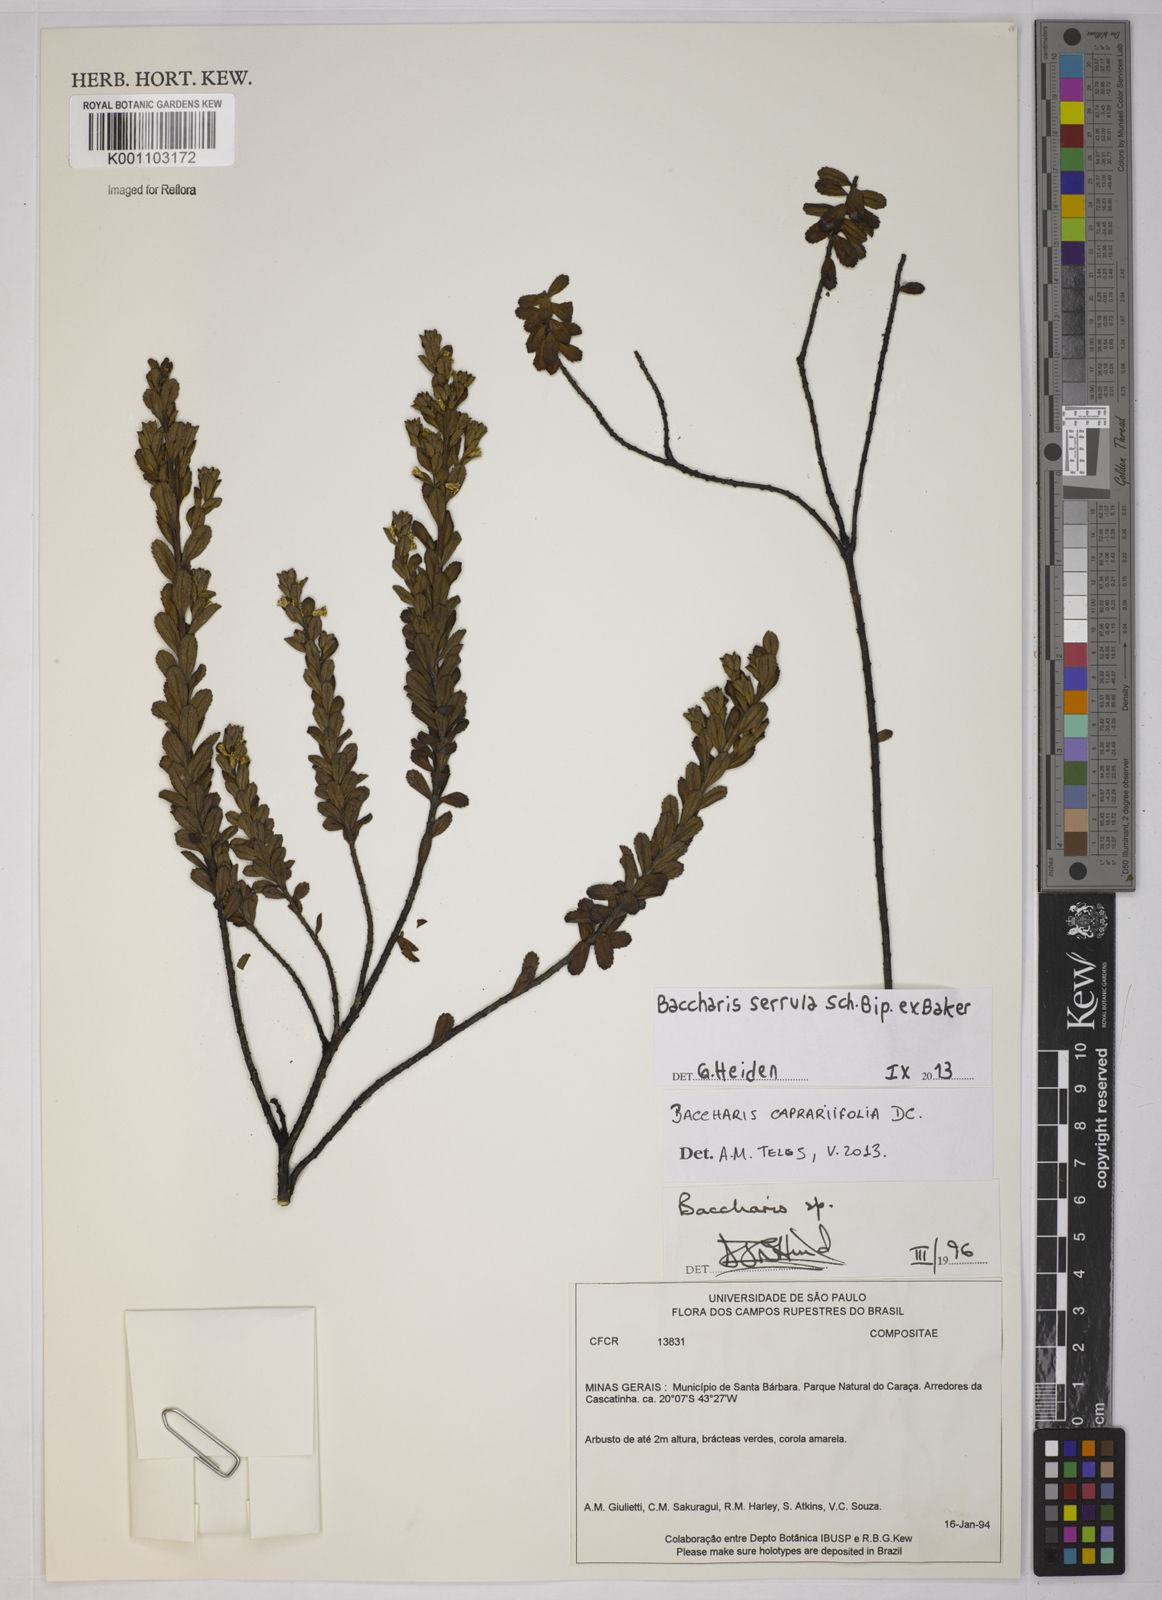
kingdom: Plantae
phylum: Tracheophyta
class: Magnoliopsida
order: Asterales
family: Asteraceae
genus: Baccharis
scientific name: Baccharis serrula
